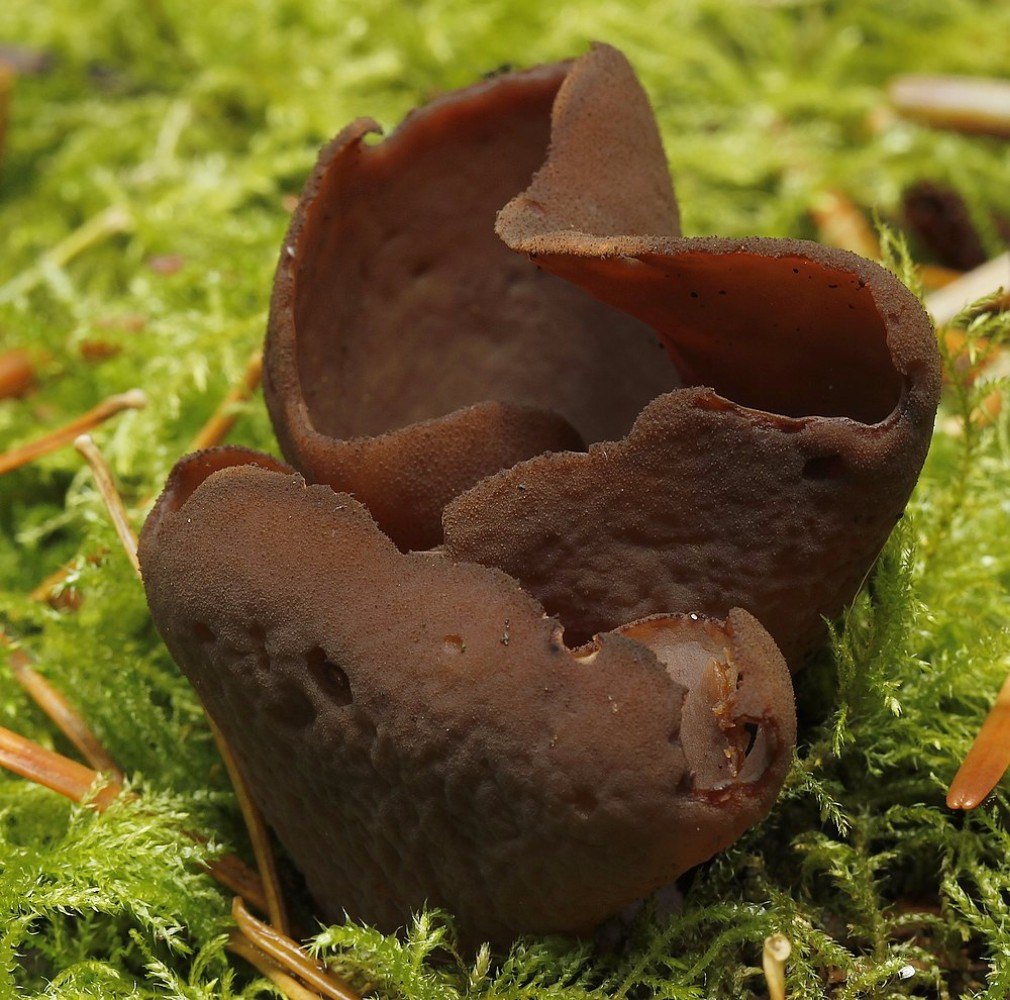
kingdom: Fungi
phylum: Ascomycota
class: Pezizomycetes
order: Pezizales
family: Otideaceae
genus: Otidea
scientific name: Otidea bufonia
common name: brun ørebæger
